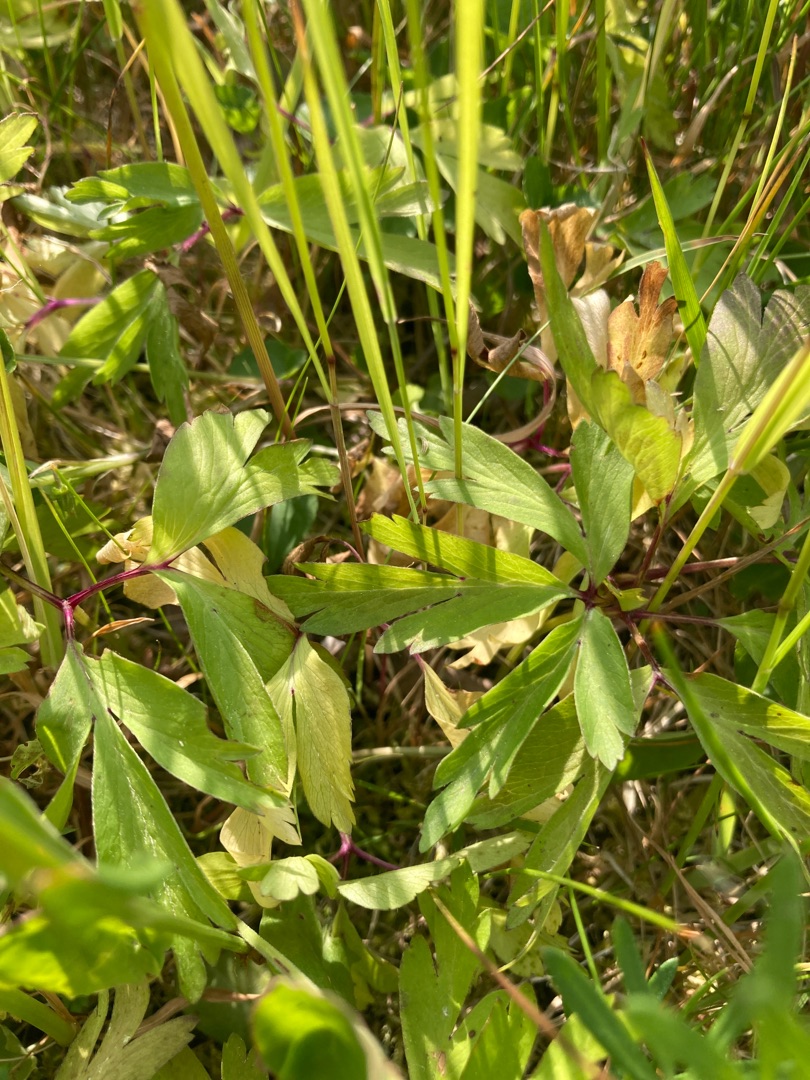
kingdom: Plantae
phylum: Tracheophyta
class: Magnoliopsida
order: Ranunculales
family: Ranunculaceae
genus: Anemone
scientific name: Anemone nemorosa
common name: Hvid anemone
